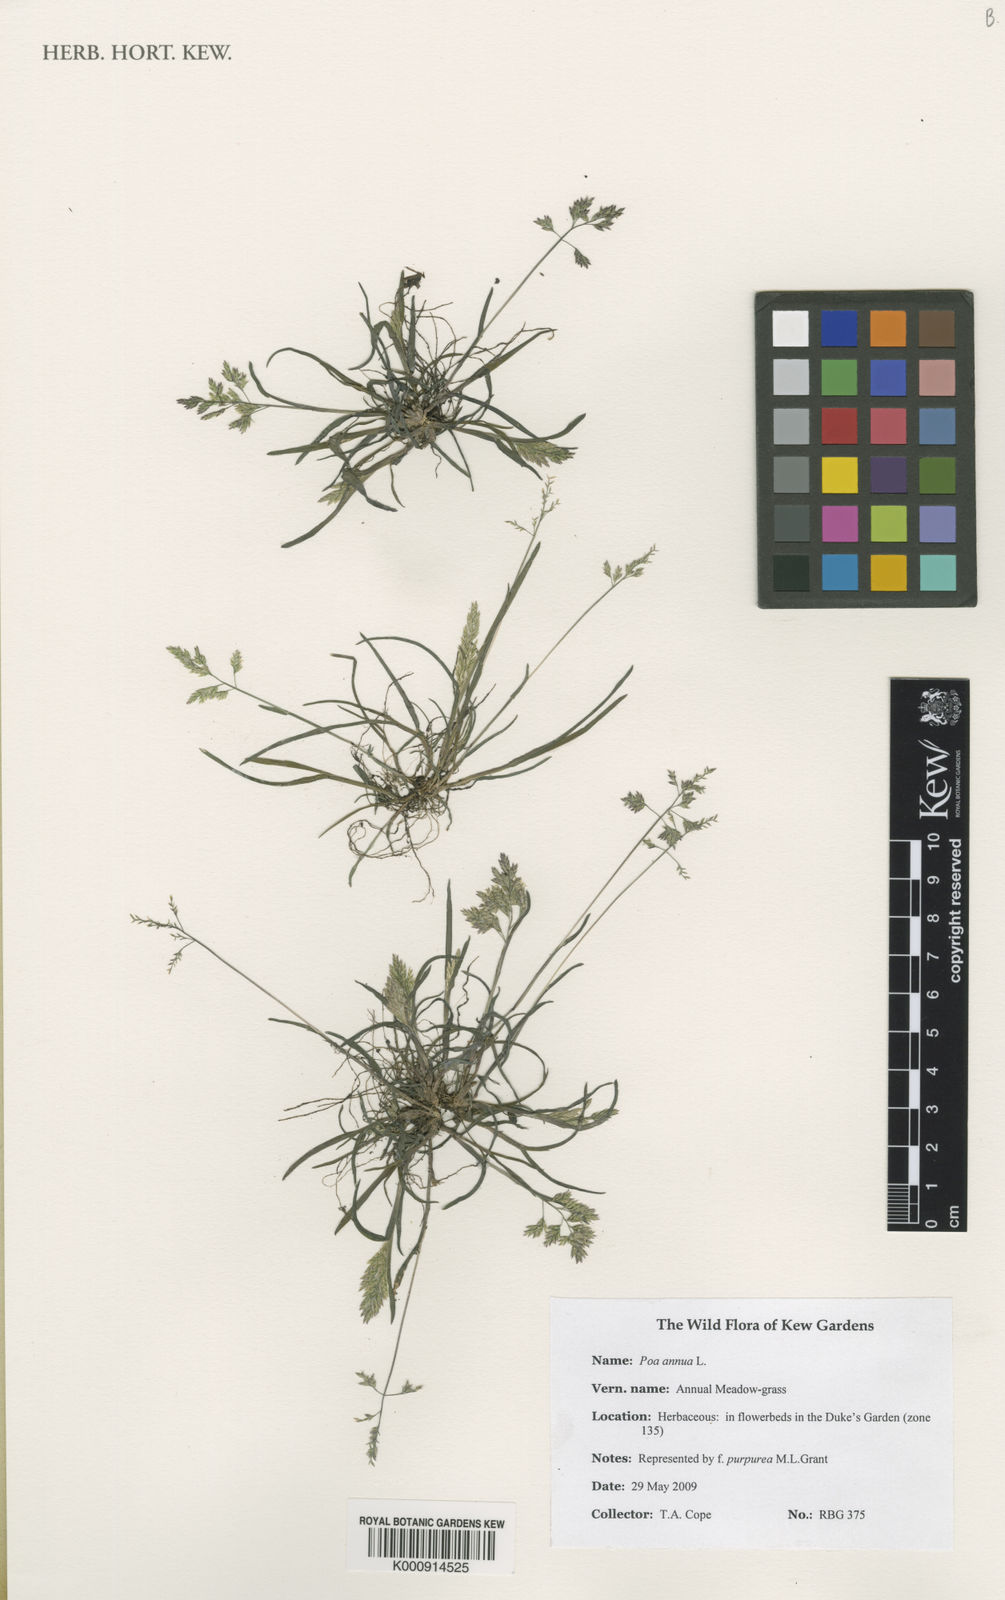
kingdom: Plantae
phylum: Tracheophyta
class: Liliopsida
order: Poales
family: Poaceae
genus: Poa
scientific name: Poa annua
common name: Annual bluegrass
